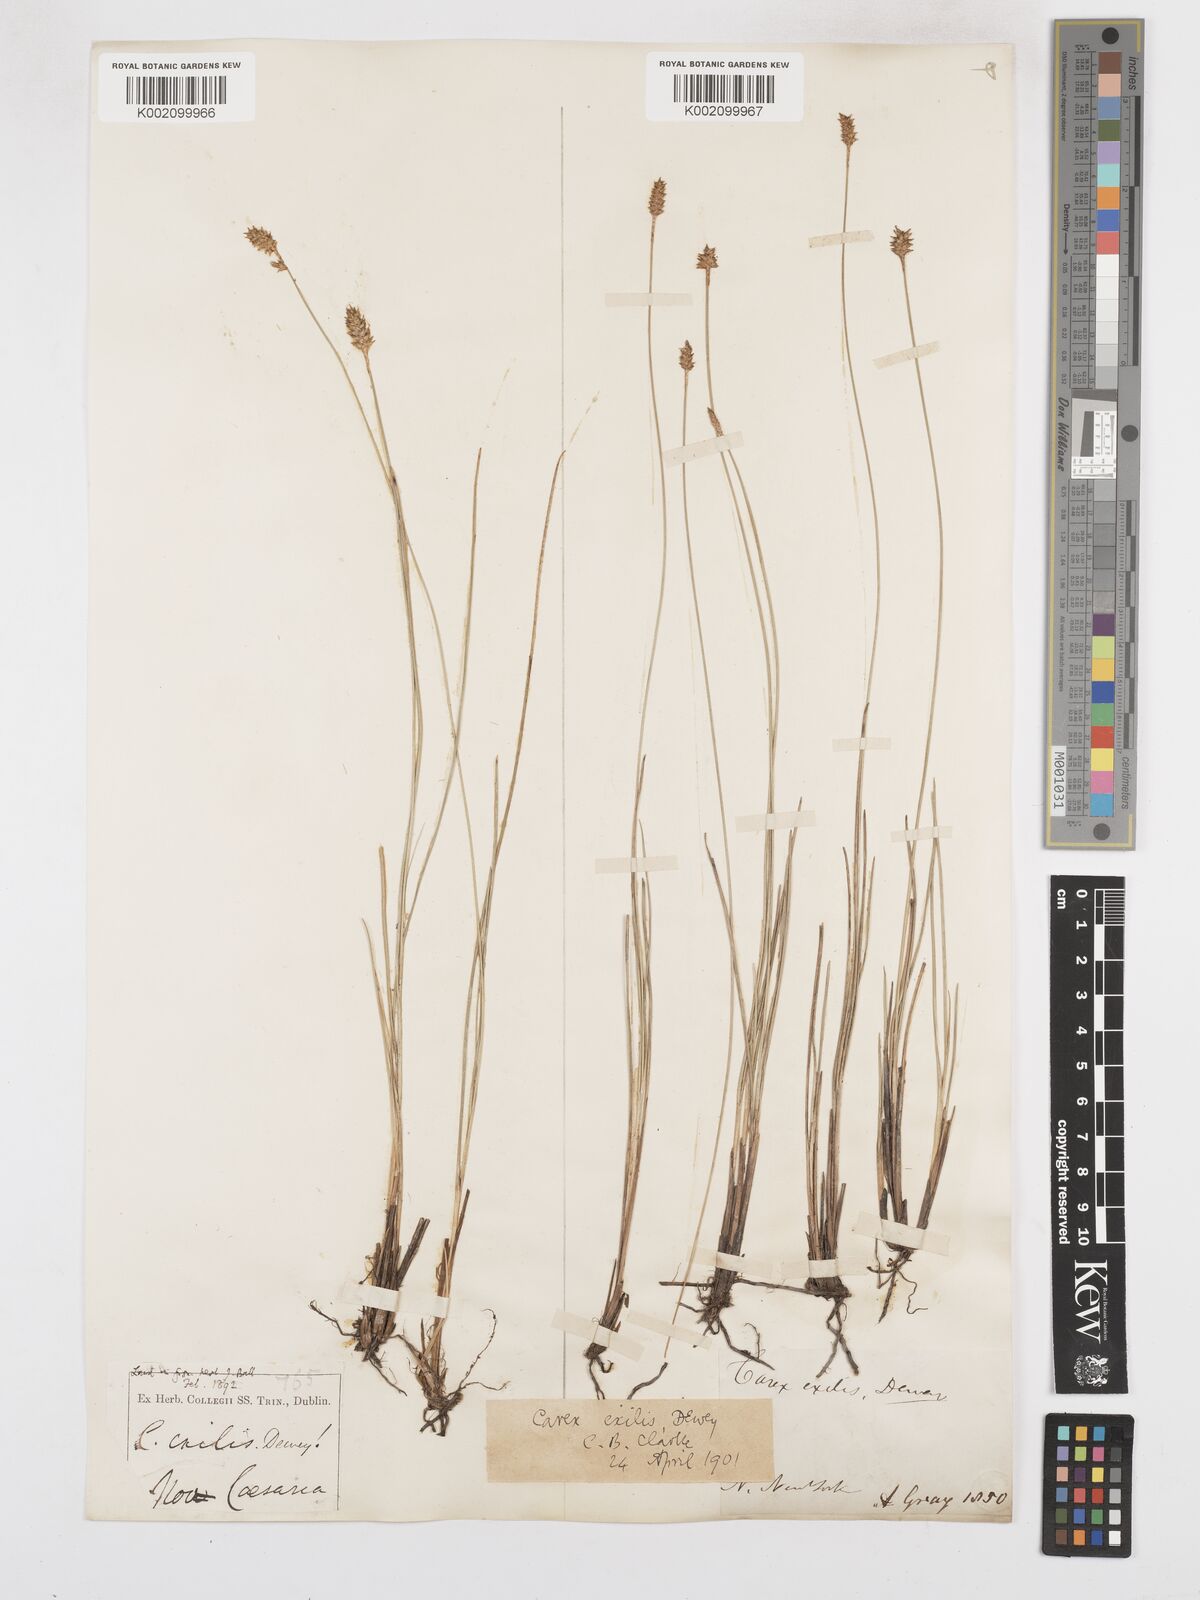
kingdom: Plantae
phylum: Tracheophyta
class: Liliopsida
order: Poales
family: Cyperaceae
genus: Carex
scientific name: Carex exilis
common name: Coastal sedge
